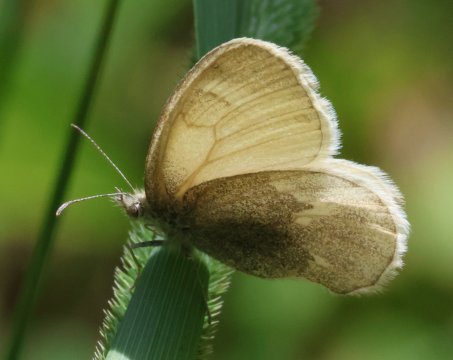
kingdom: Animalia
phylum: Arthropoda
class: Insecta
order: Lepidoptera
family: Nymphalidae
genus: Coenonympha
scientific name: Coenonympha tullia
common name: Large Heath
